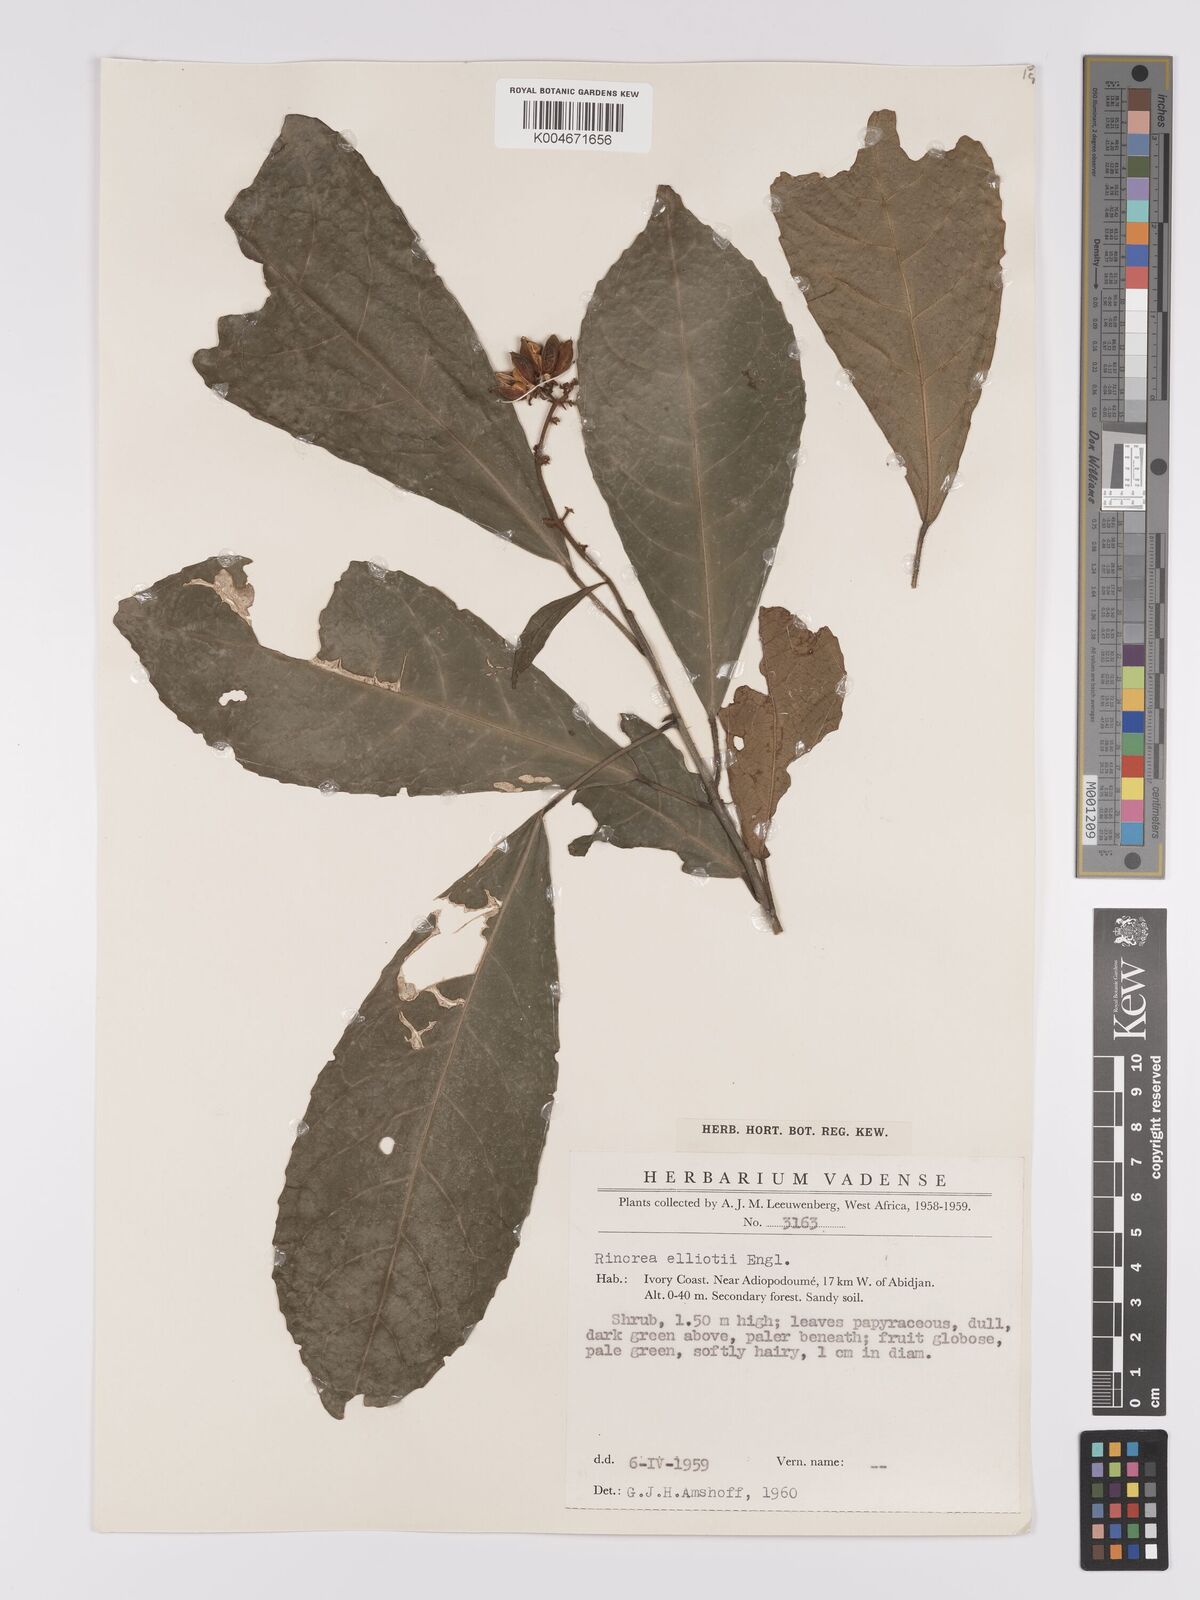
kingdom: Plantae
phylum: Tracheophyta
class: Magnoliopsida
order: Malpighiales
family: Violaceae
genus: Rinorea
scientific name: Rinorea welwitschii
